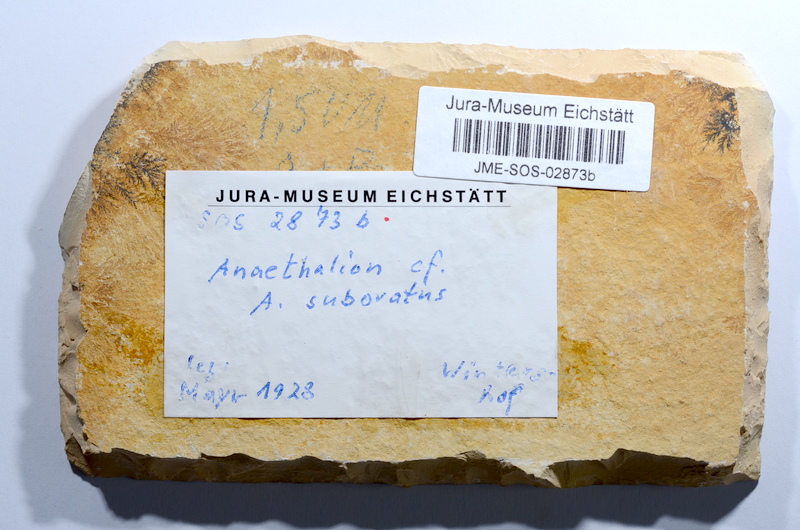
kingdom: Animalia
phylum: Chordata
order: Elopiformes
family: Anaethalionidae
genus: Anaethalion
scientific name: Anaethalion subovatus
